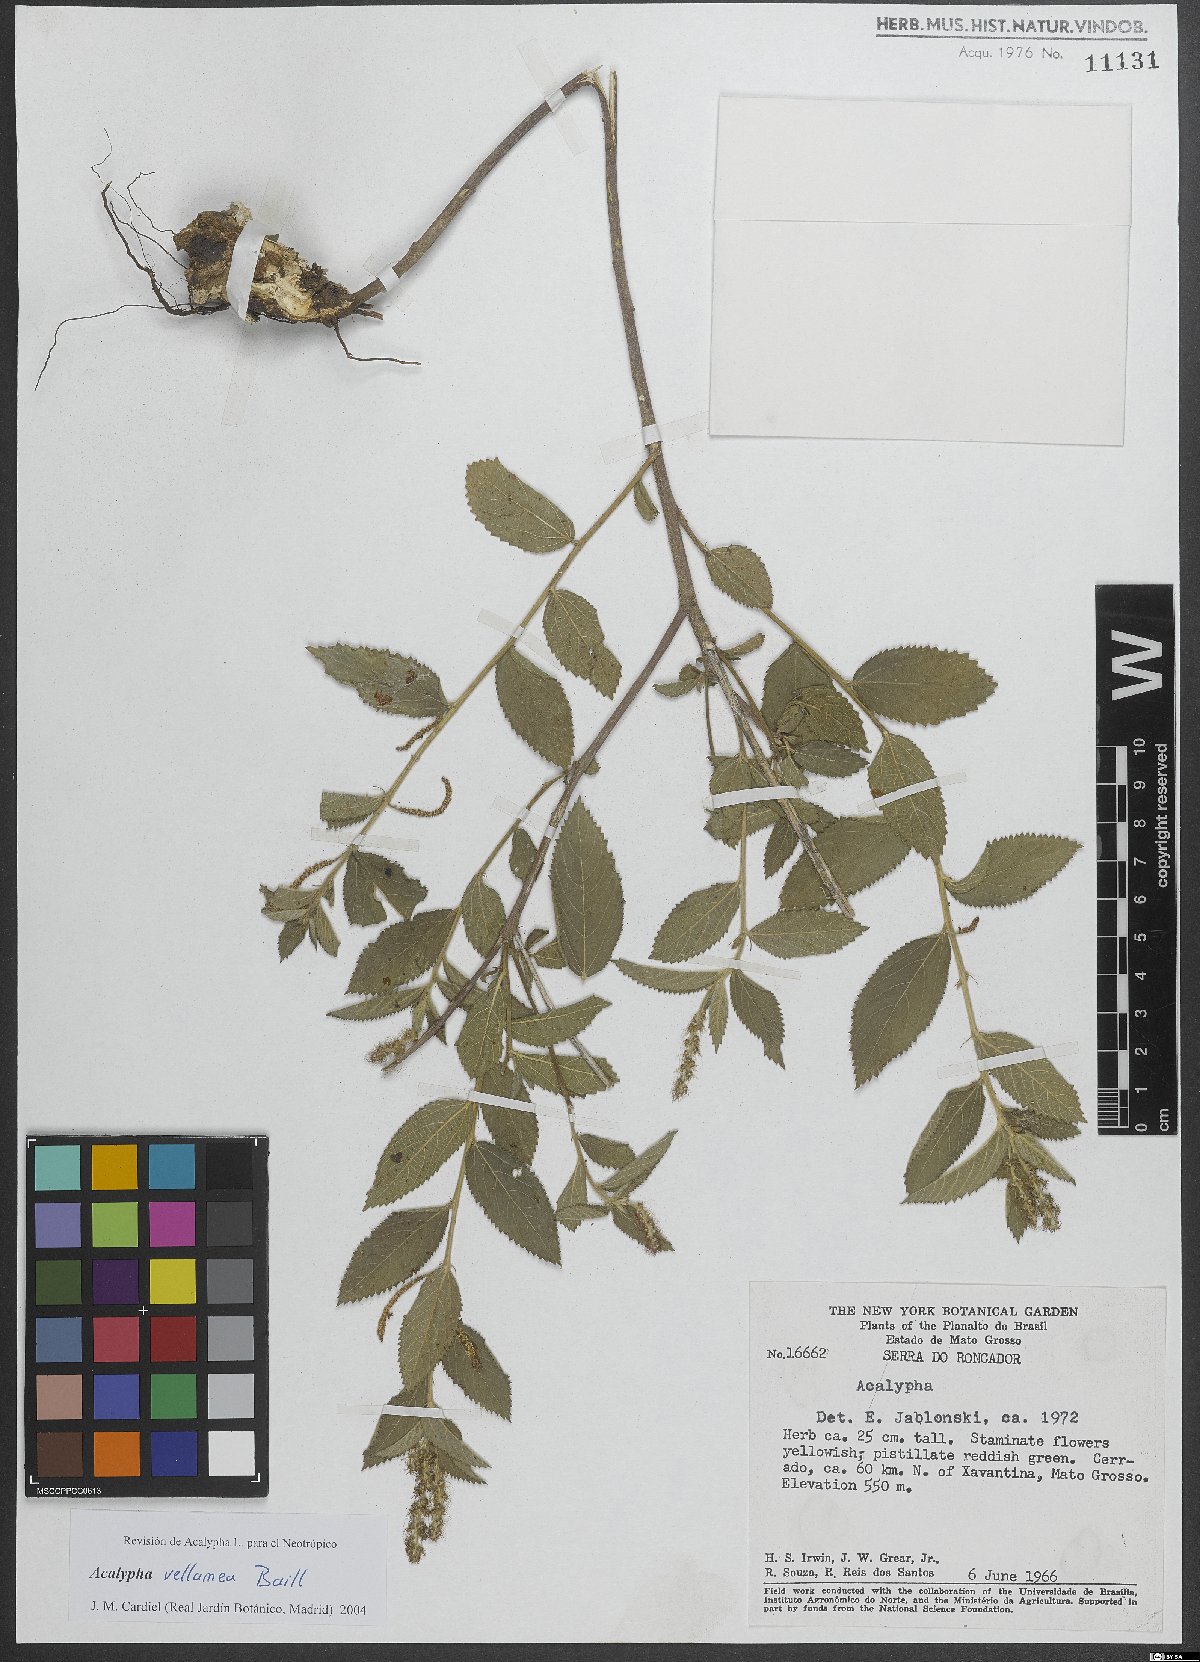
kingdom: Plantae
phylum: Tracheophyta
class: Magnoliopsida
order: Malpighiales
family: Euphorbiaceae
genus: Acalypha
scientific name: Acalypha vellamea
